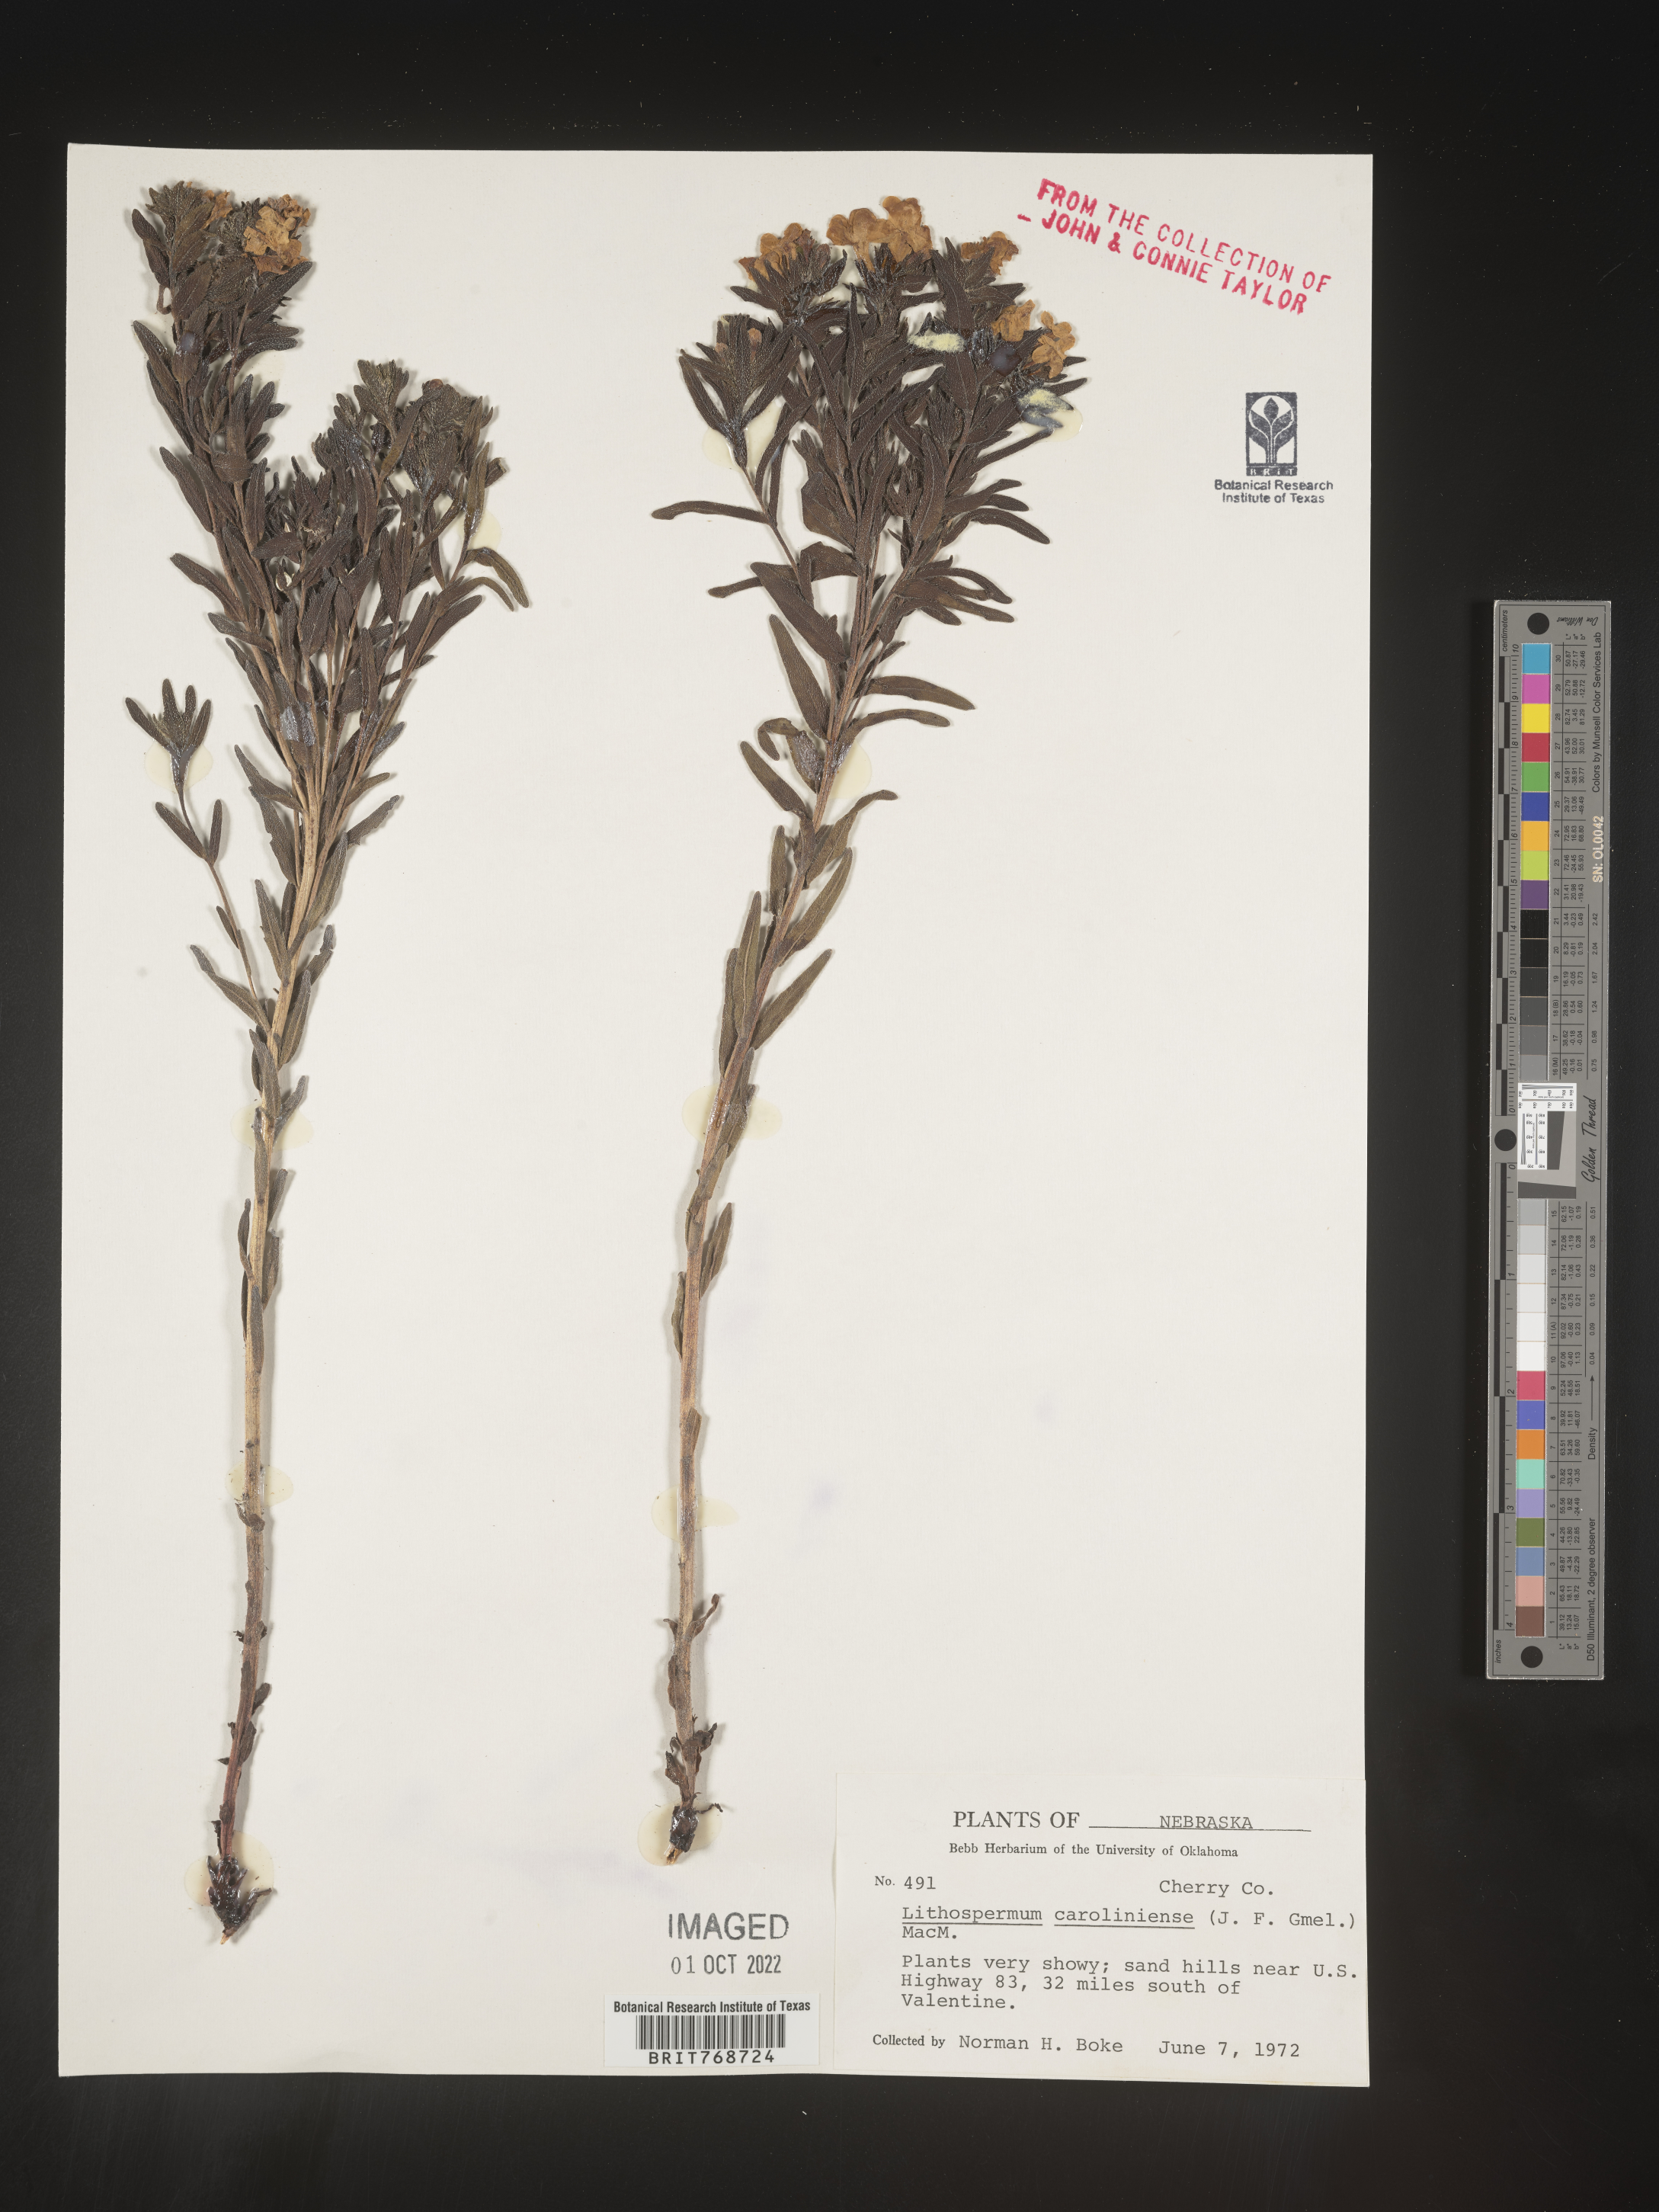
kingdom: Plantae
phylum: Tracheophyta
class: Magnoliopsida
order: Boraginales
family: Boraginaceae
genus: Lithospermum
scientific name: Lithospermum caroliniense
